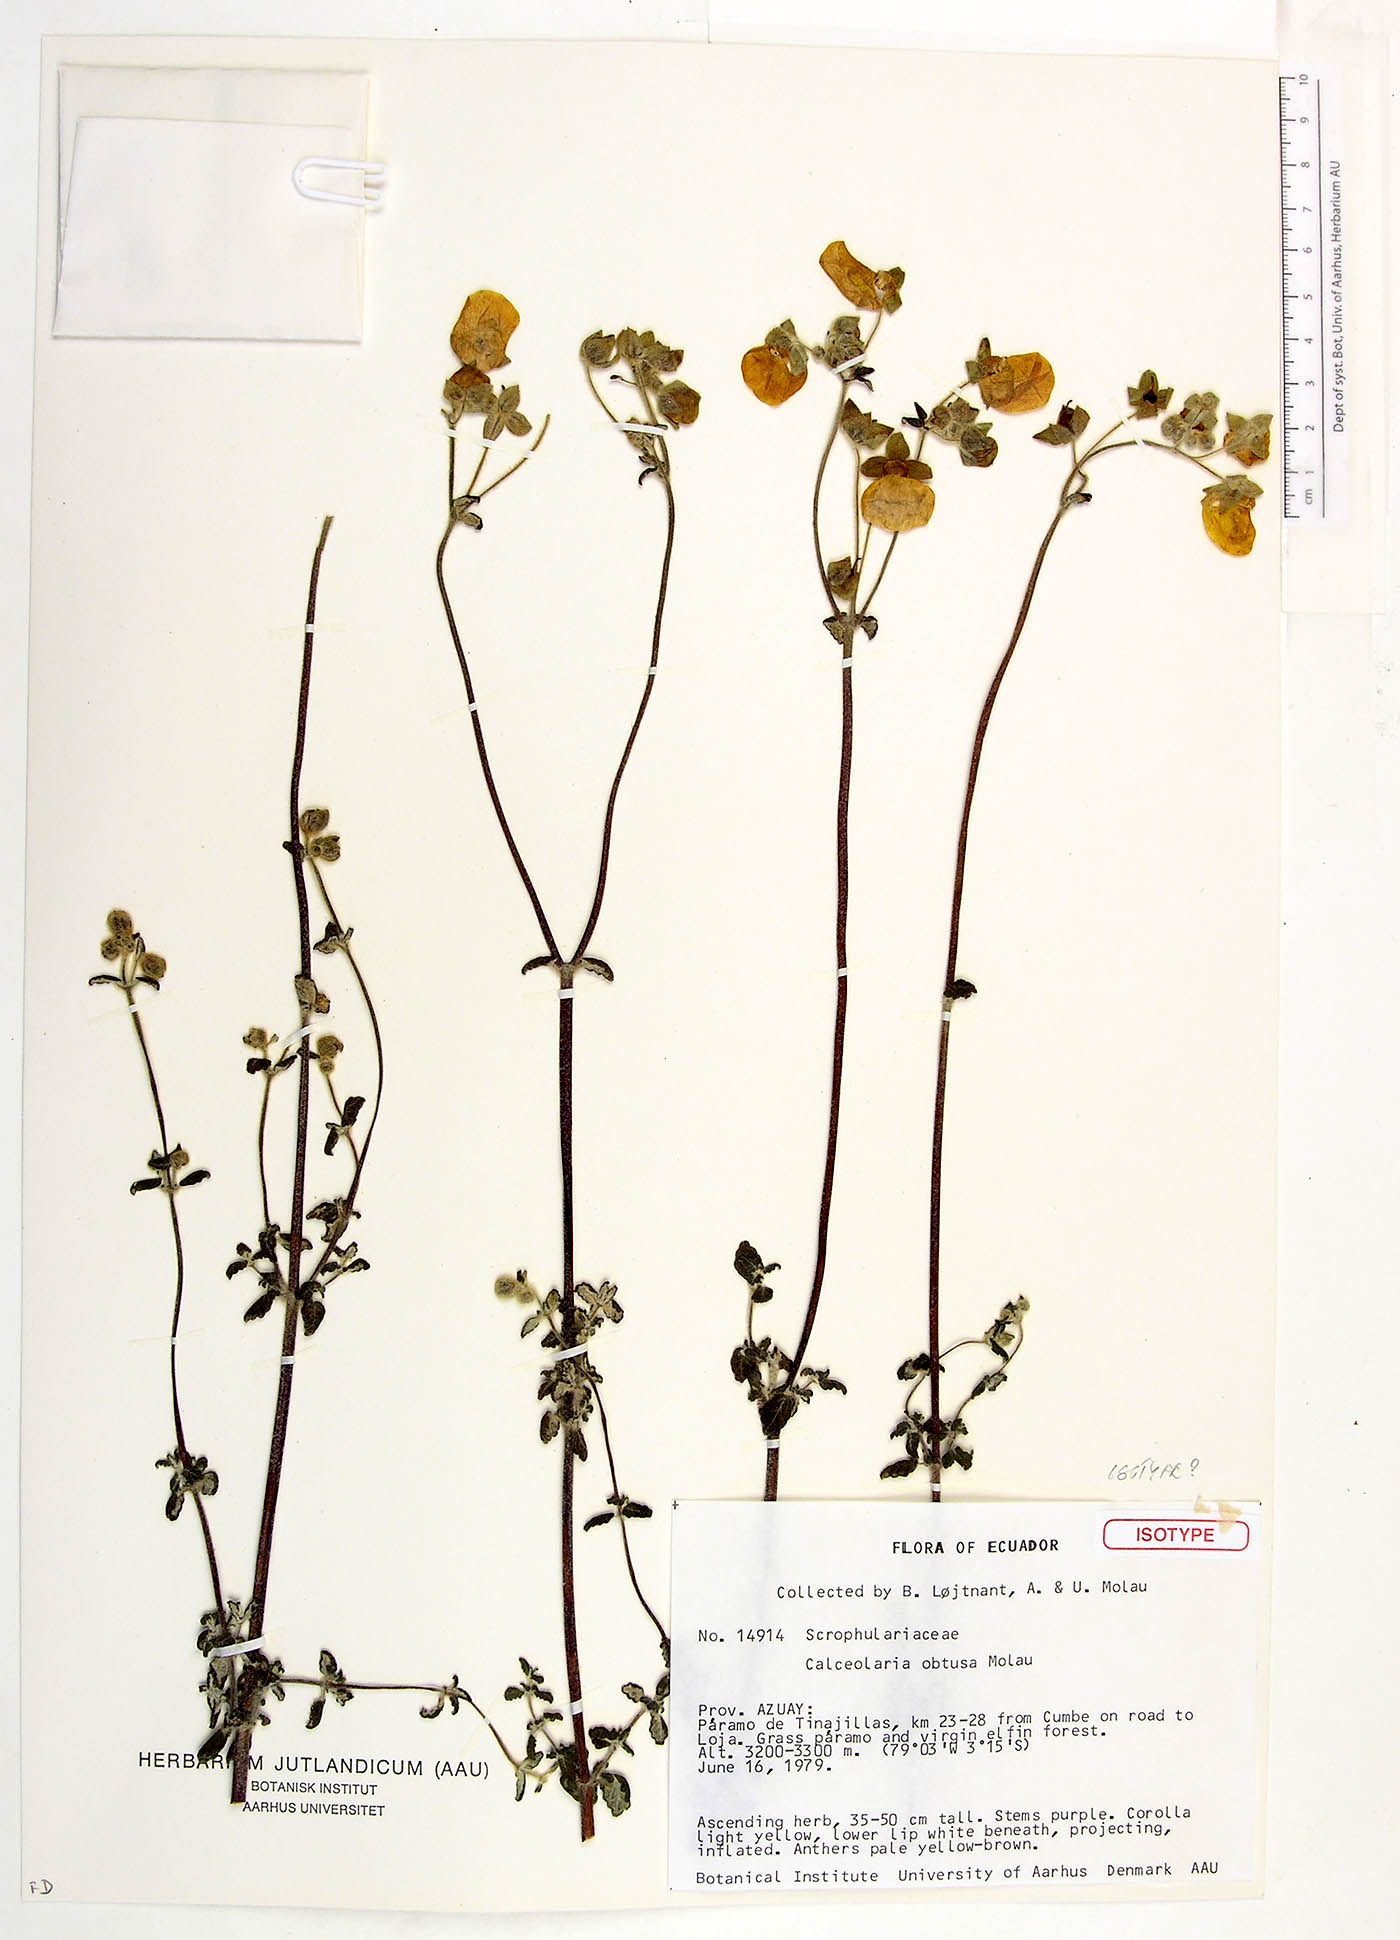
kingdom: Plantae
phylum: Tracheophyta
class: Magnoliopsida
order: Lamiales
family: Calceolariaceae
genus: Calceolaria
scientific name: Calceolaria obtusa
